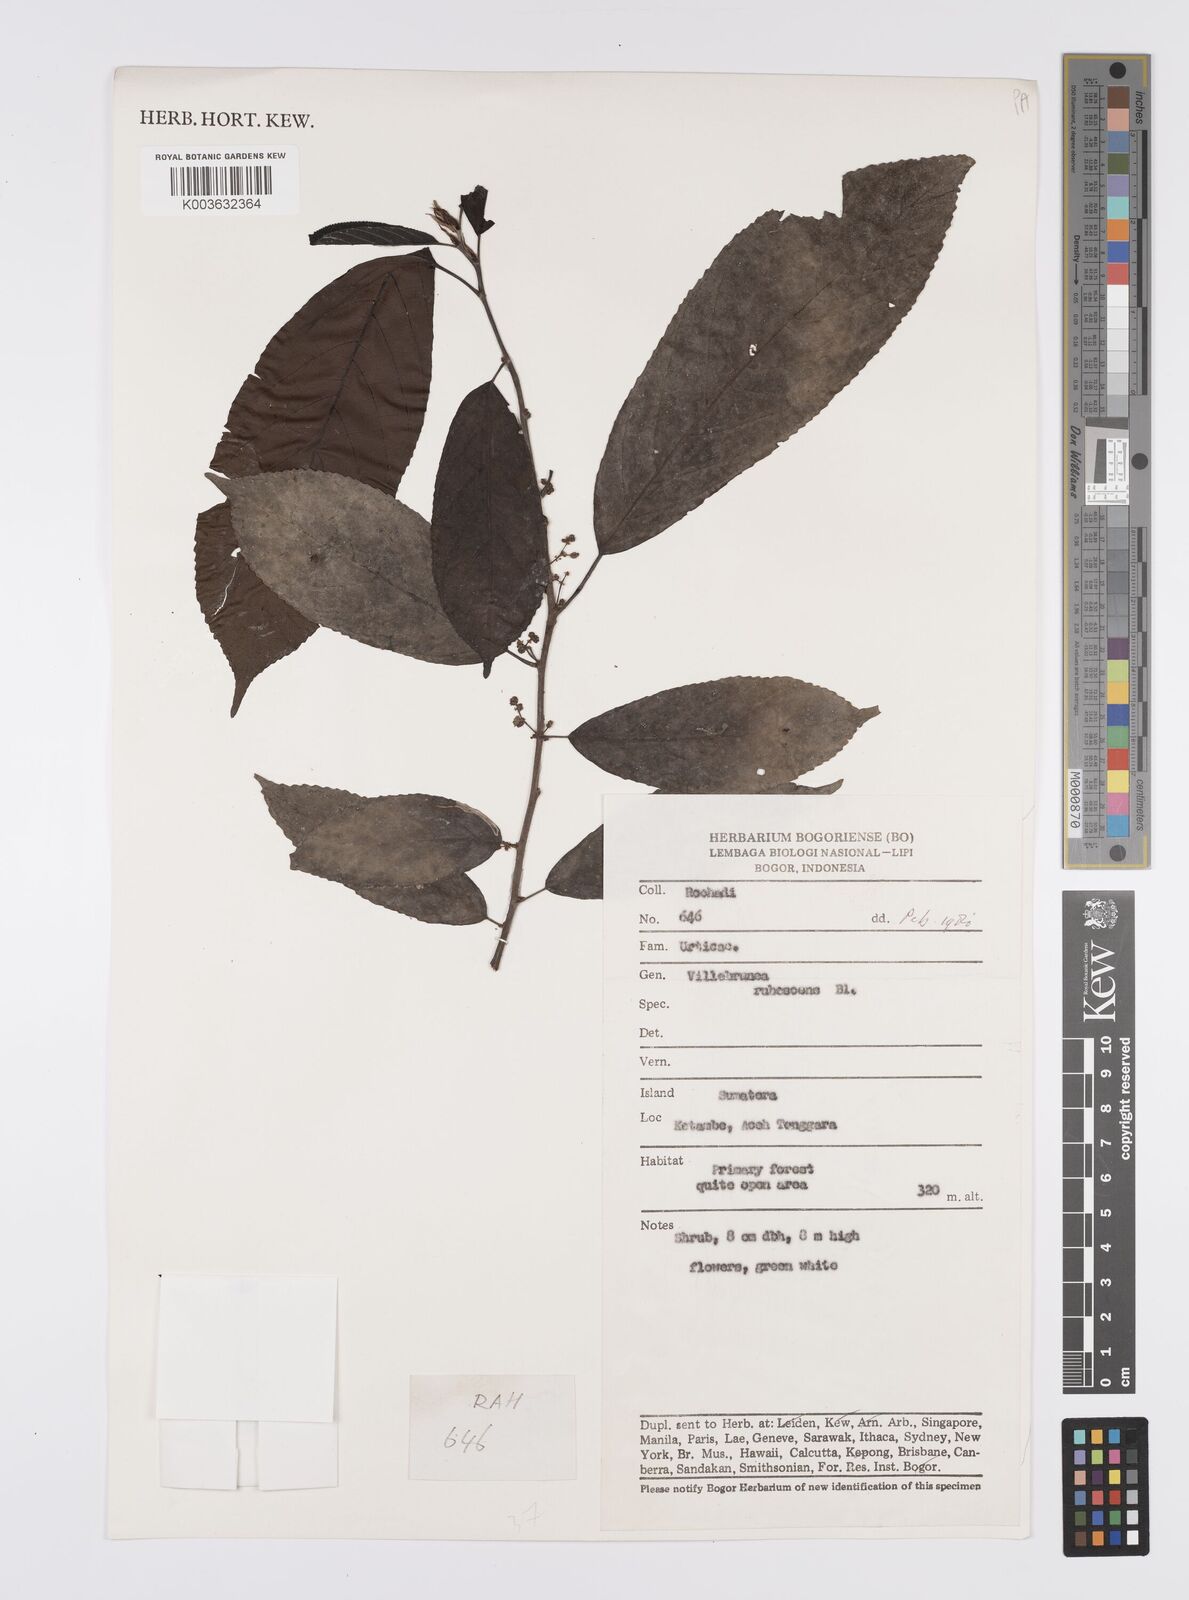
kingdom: Plantae
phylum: Tracheophyta
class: Magnoliopsida
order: Rosales
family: Urticaceae
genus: Oreocnide
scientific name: Oreocnide rubescens
